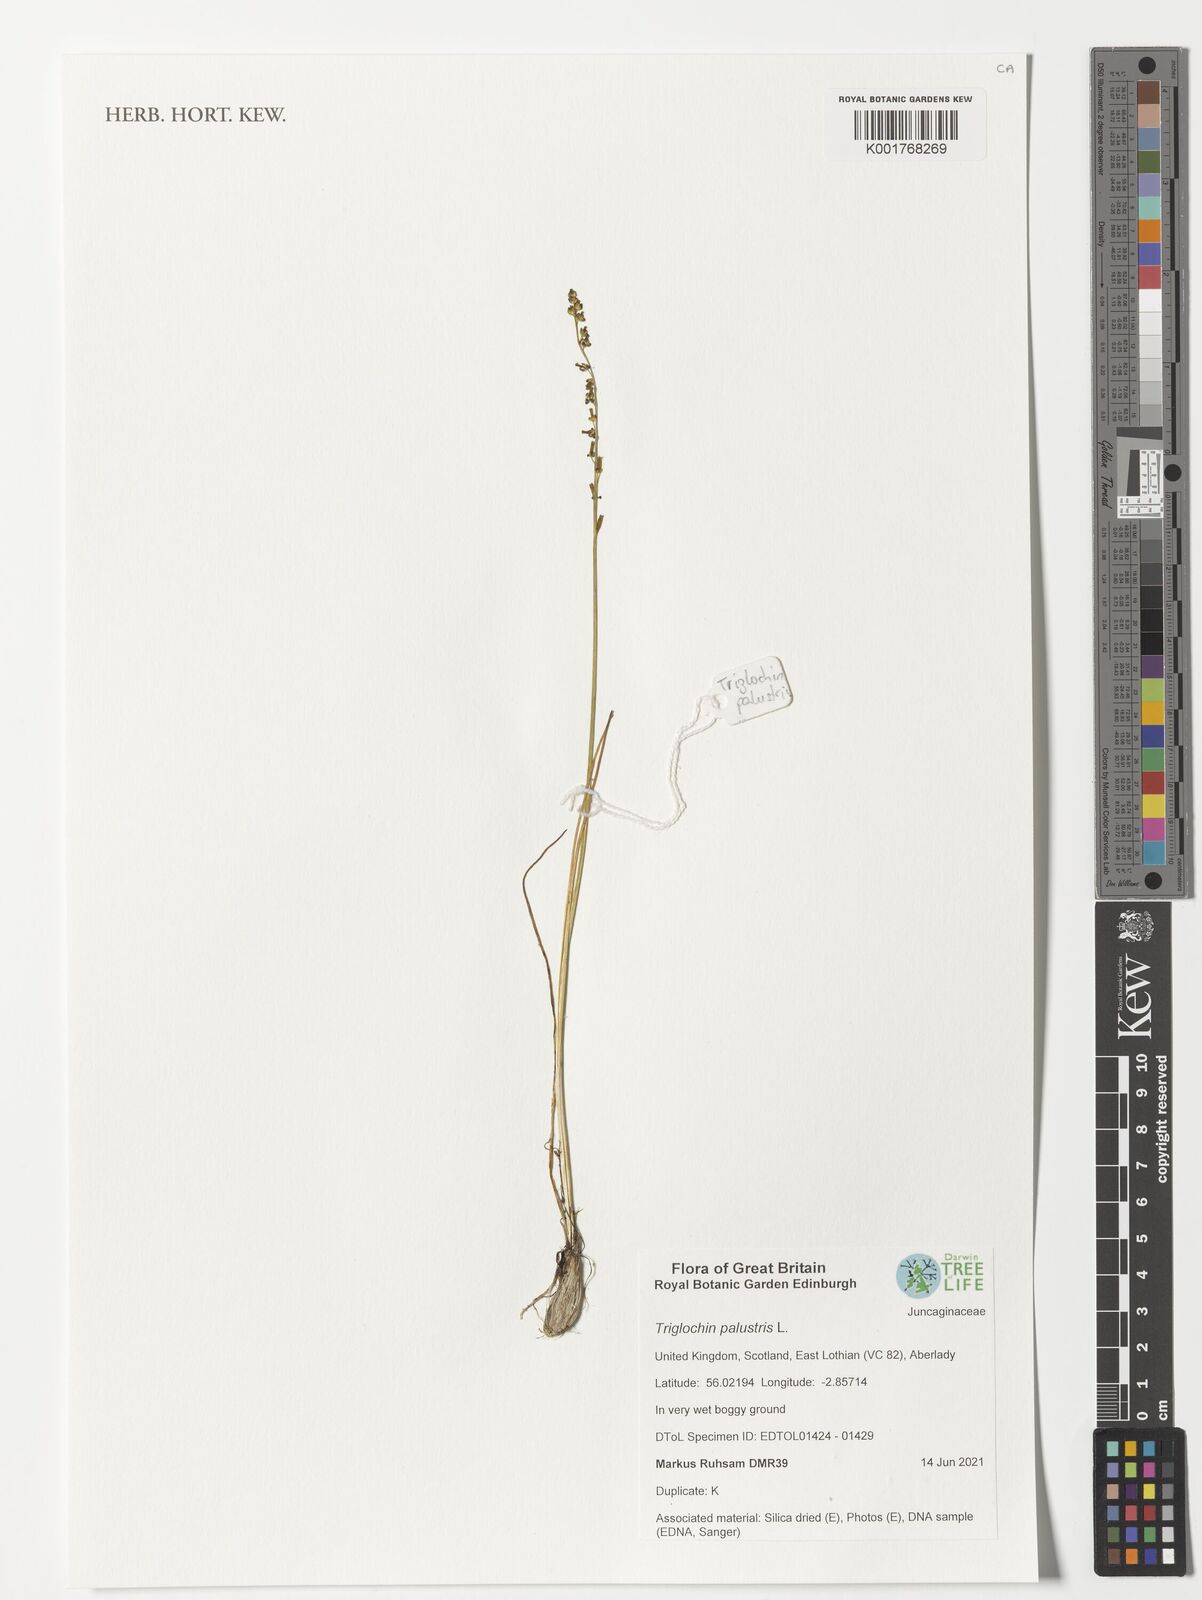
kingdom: Plantae
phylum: Tracheophyta
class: Liliopsida
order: Alismatales
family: Juncaginaceae
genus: Triglochin
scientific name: Triglochin palustris
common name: Marsh arrowgrass
